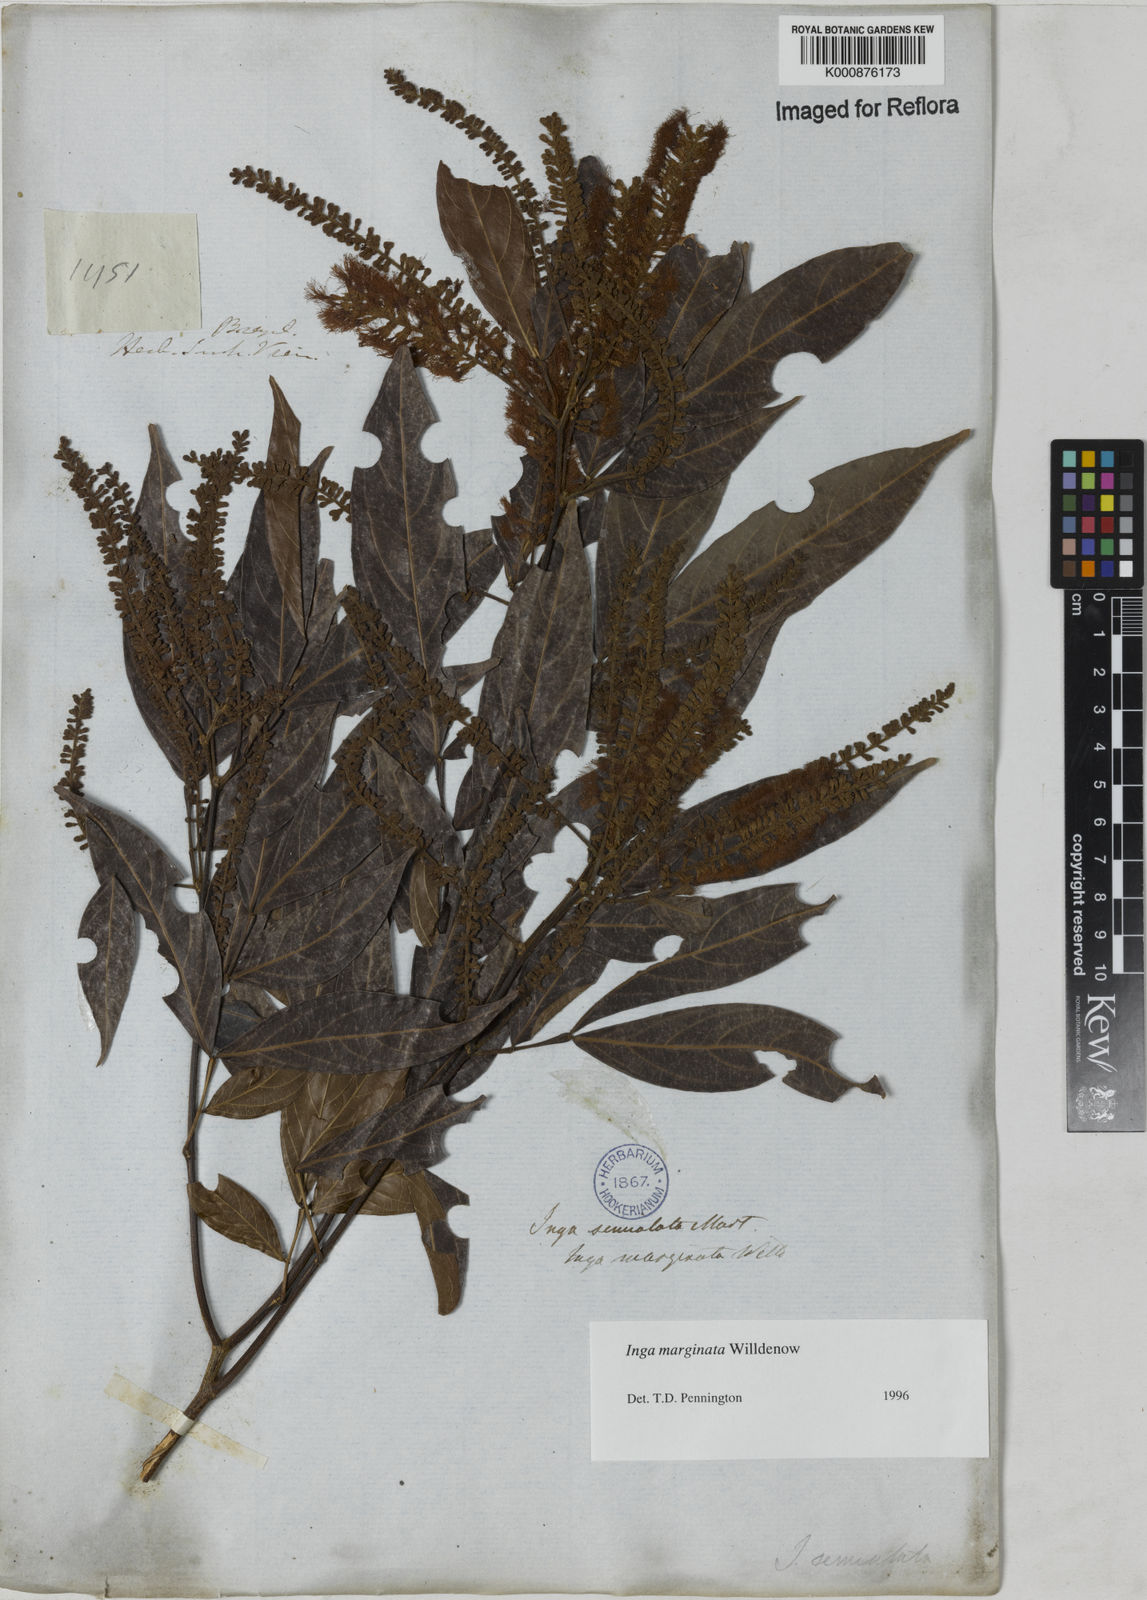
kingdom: Plantae
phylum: Tracheophyta
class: Magnoliopsida
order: Fabales
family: Fabaceae
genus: Inga
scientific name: Inga marginata
